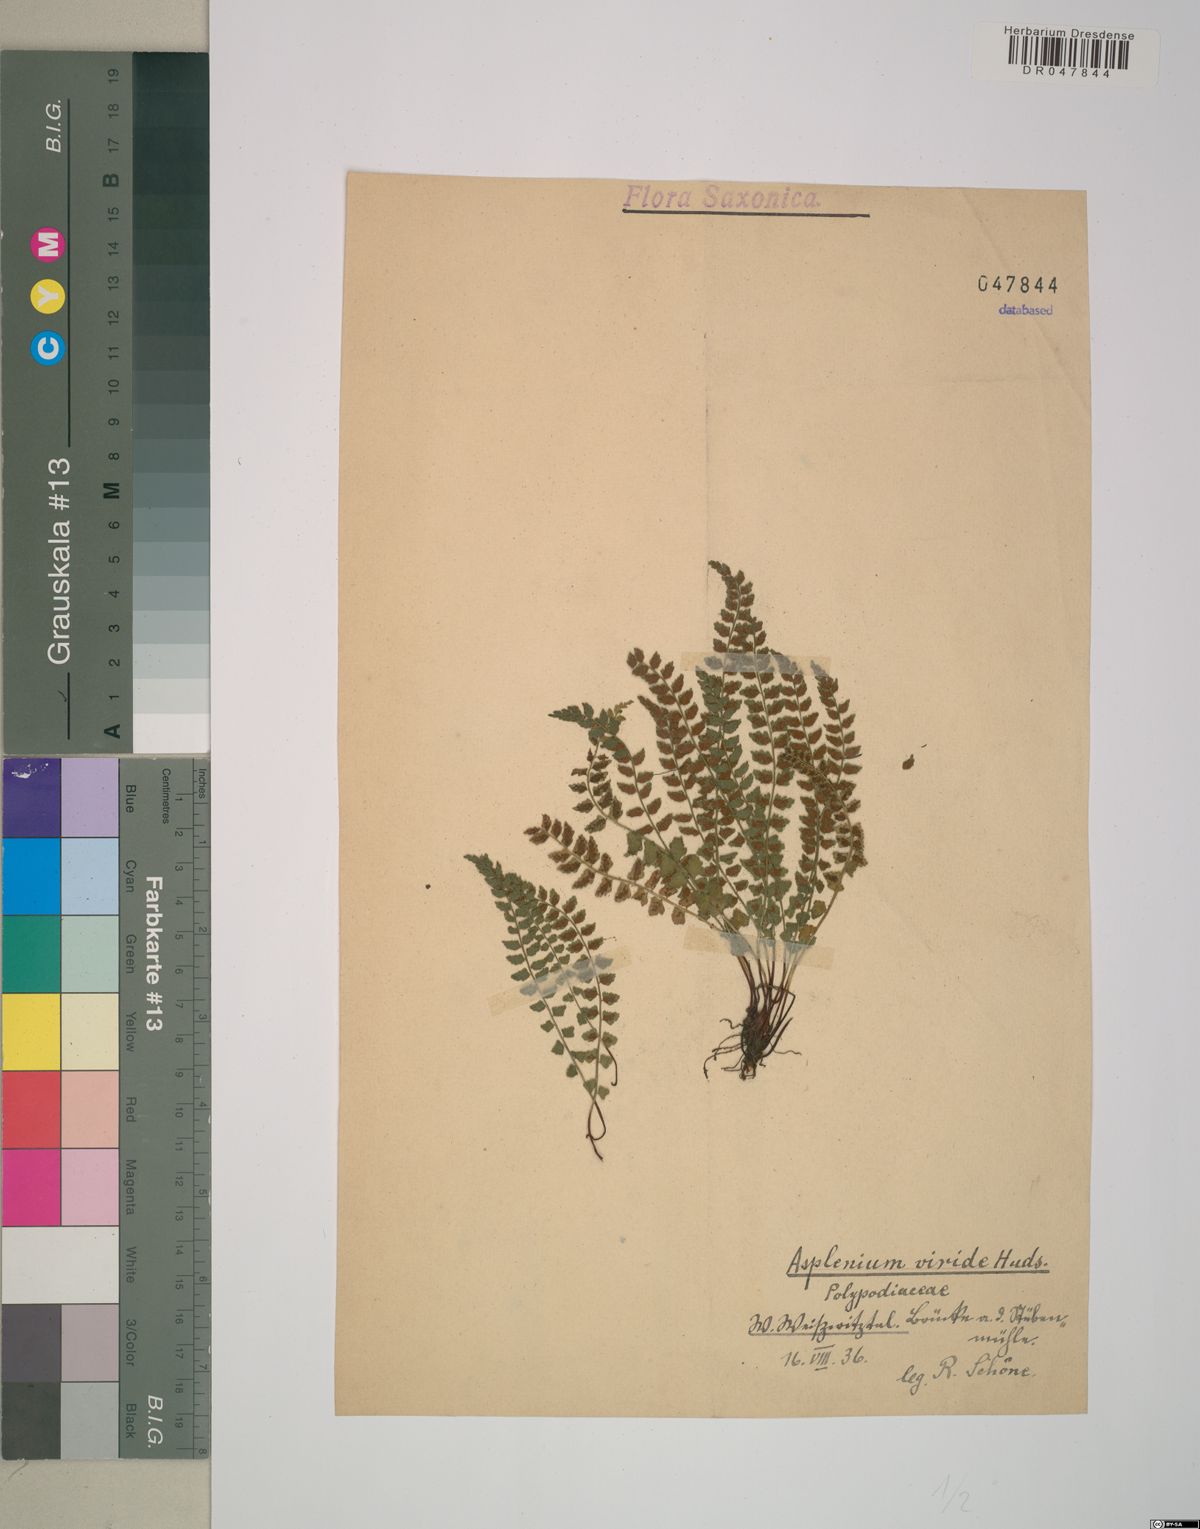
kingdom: Plantae
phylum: Tracheophyta
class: Polypodiopsida
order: Polypodiales
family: Aspleniaceae
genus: Asplenium
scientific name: Asplenium viride
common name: Green spleenwort
